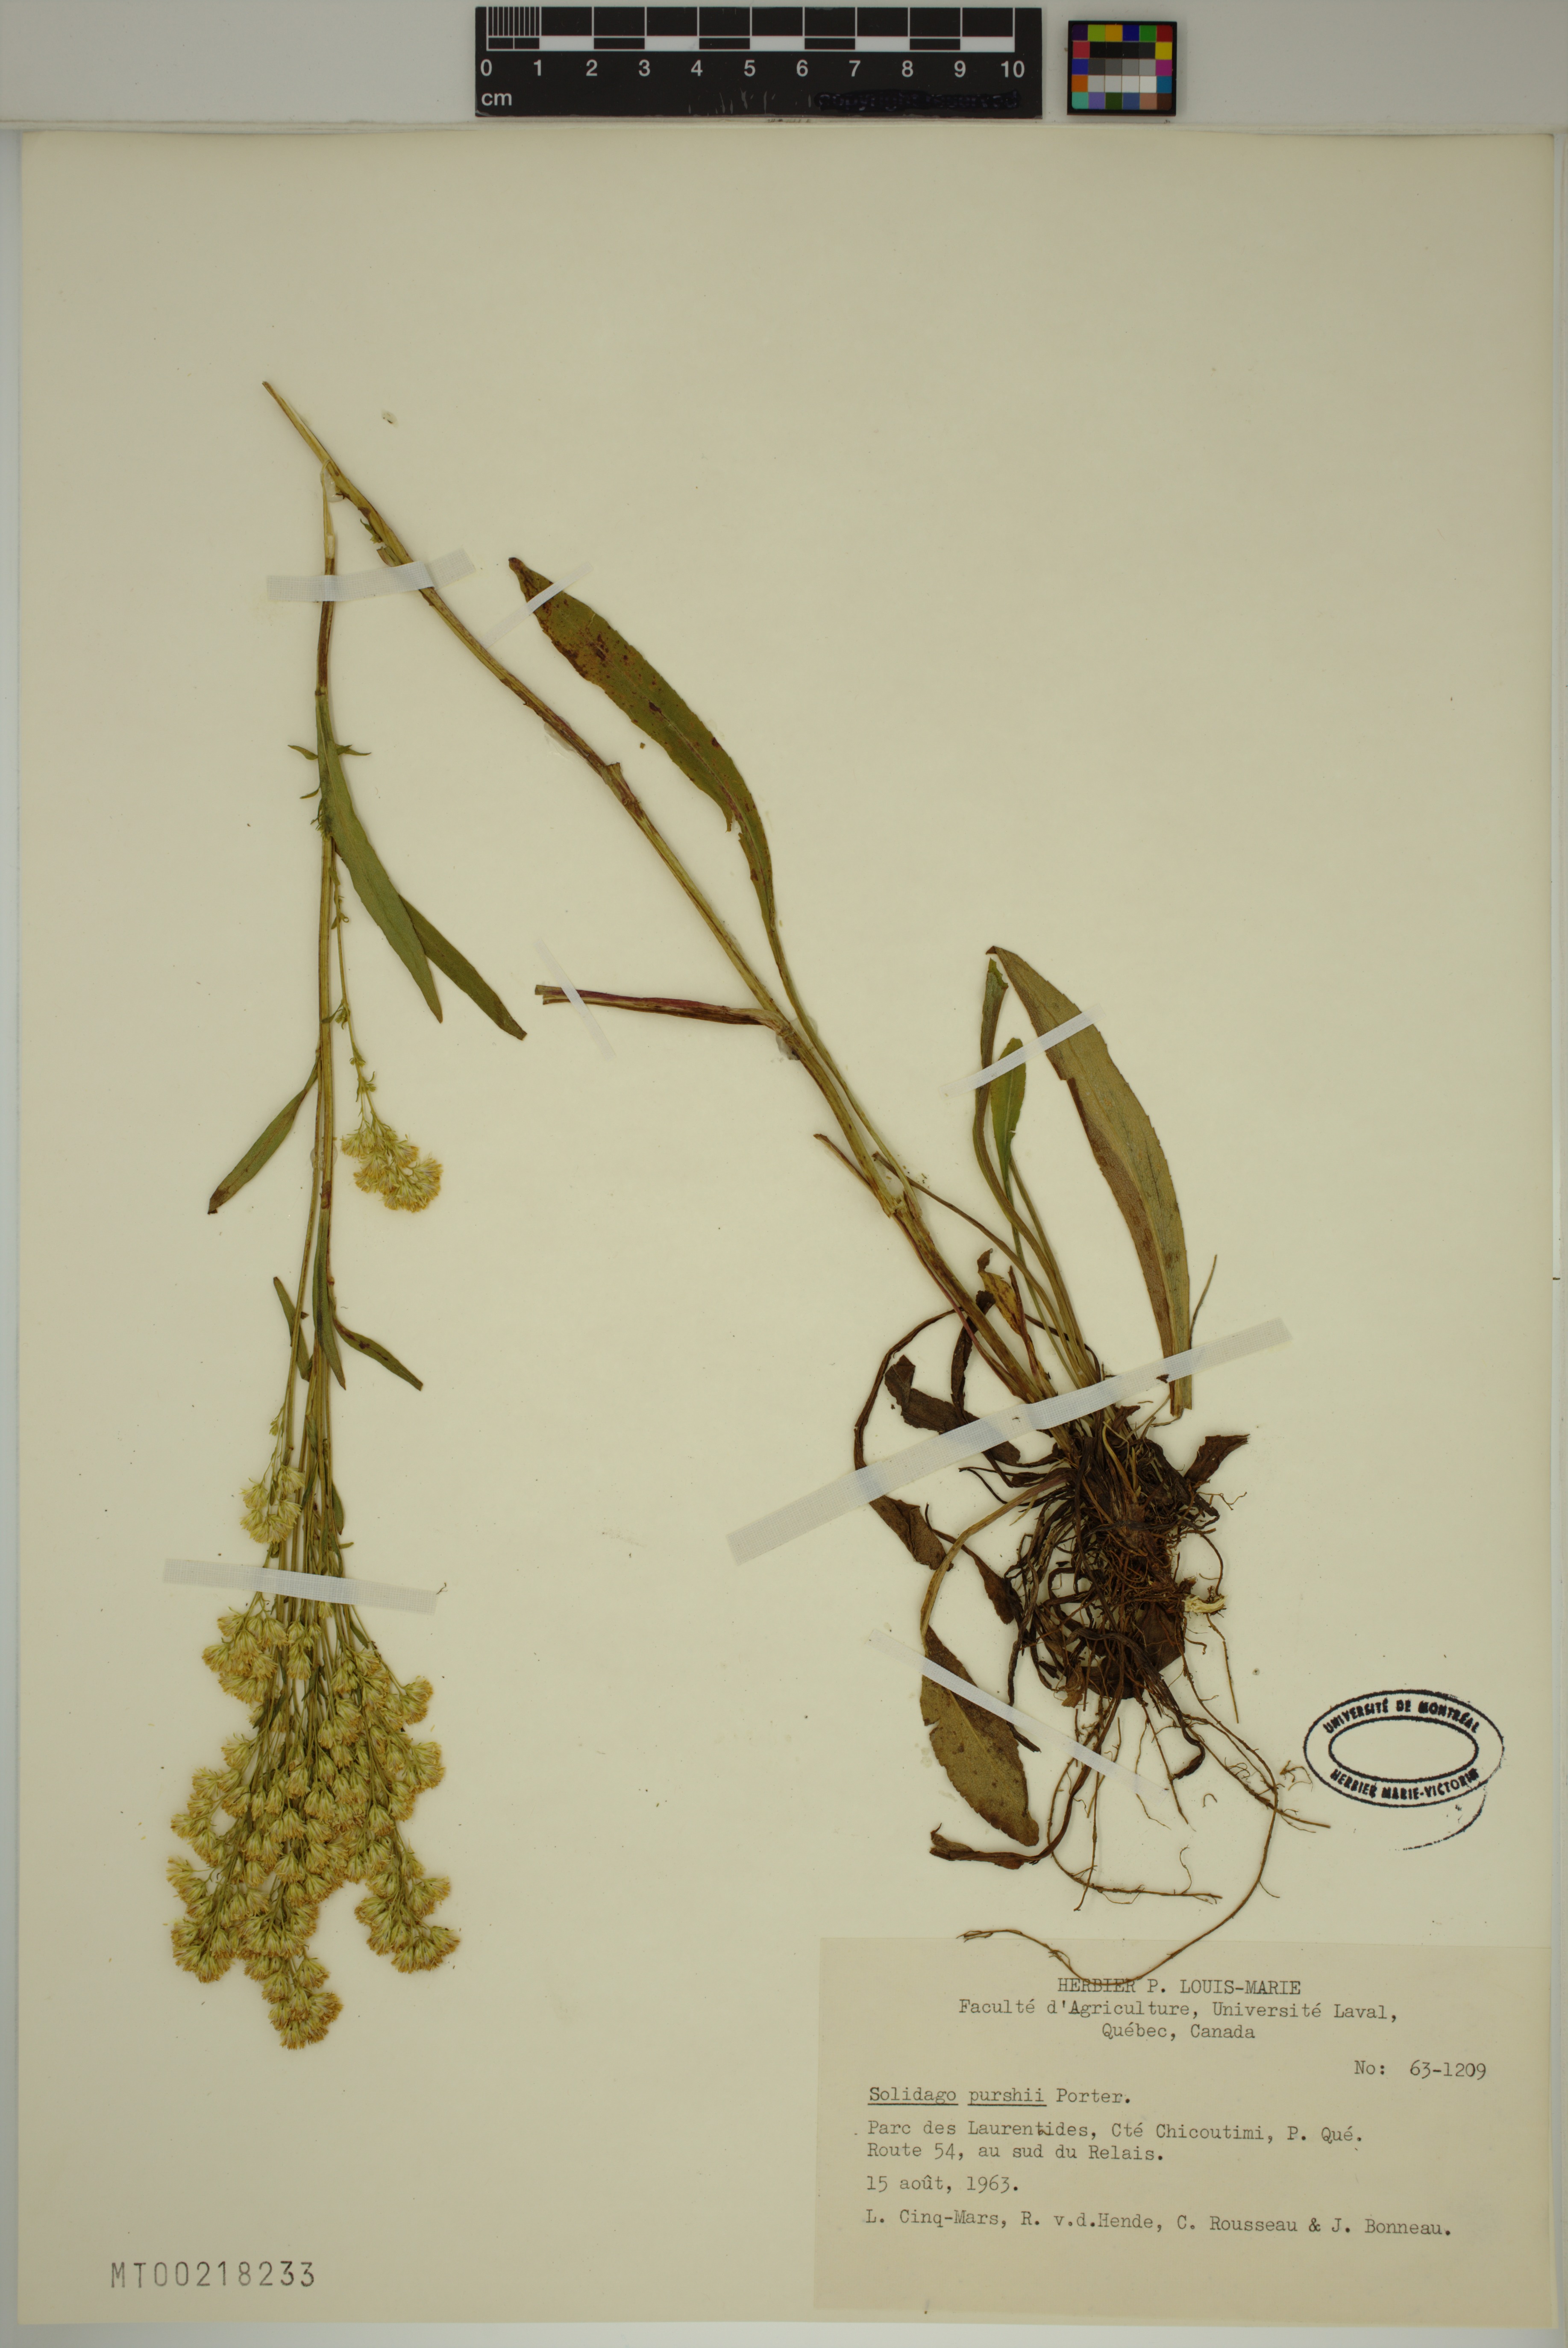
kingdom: Plantae
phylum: Tracheophyta
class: Magnoliopsida
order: Asterales
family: Asteraceae
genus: Solidago
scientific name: Solidago uliginosa
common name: Bog goldenrod
